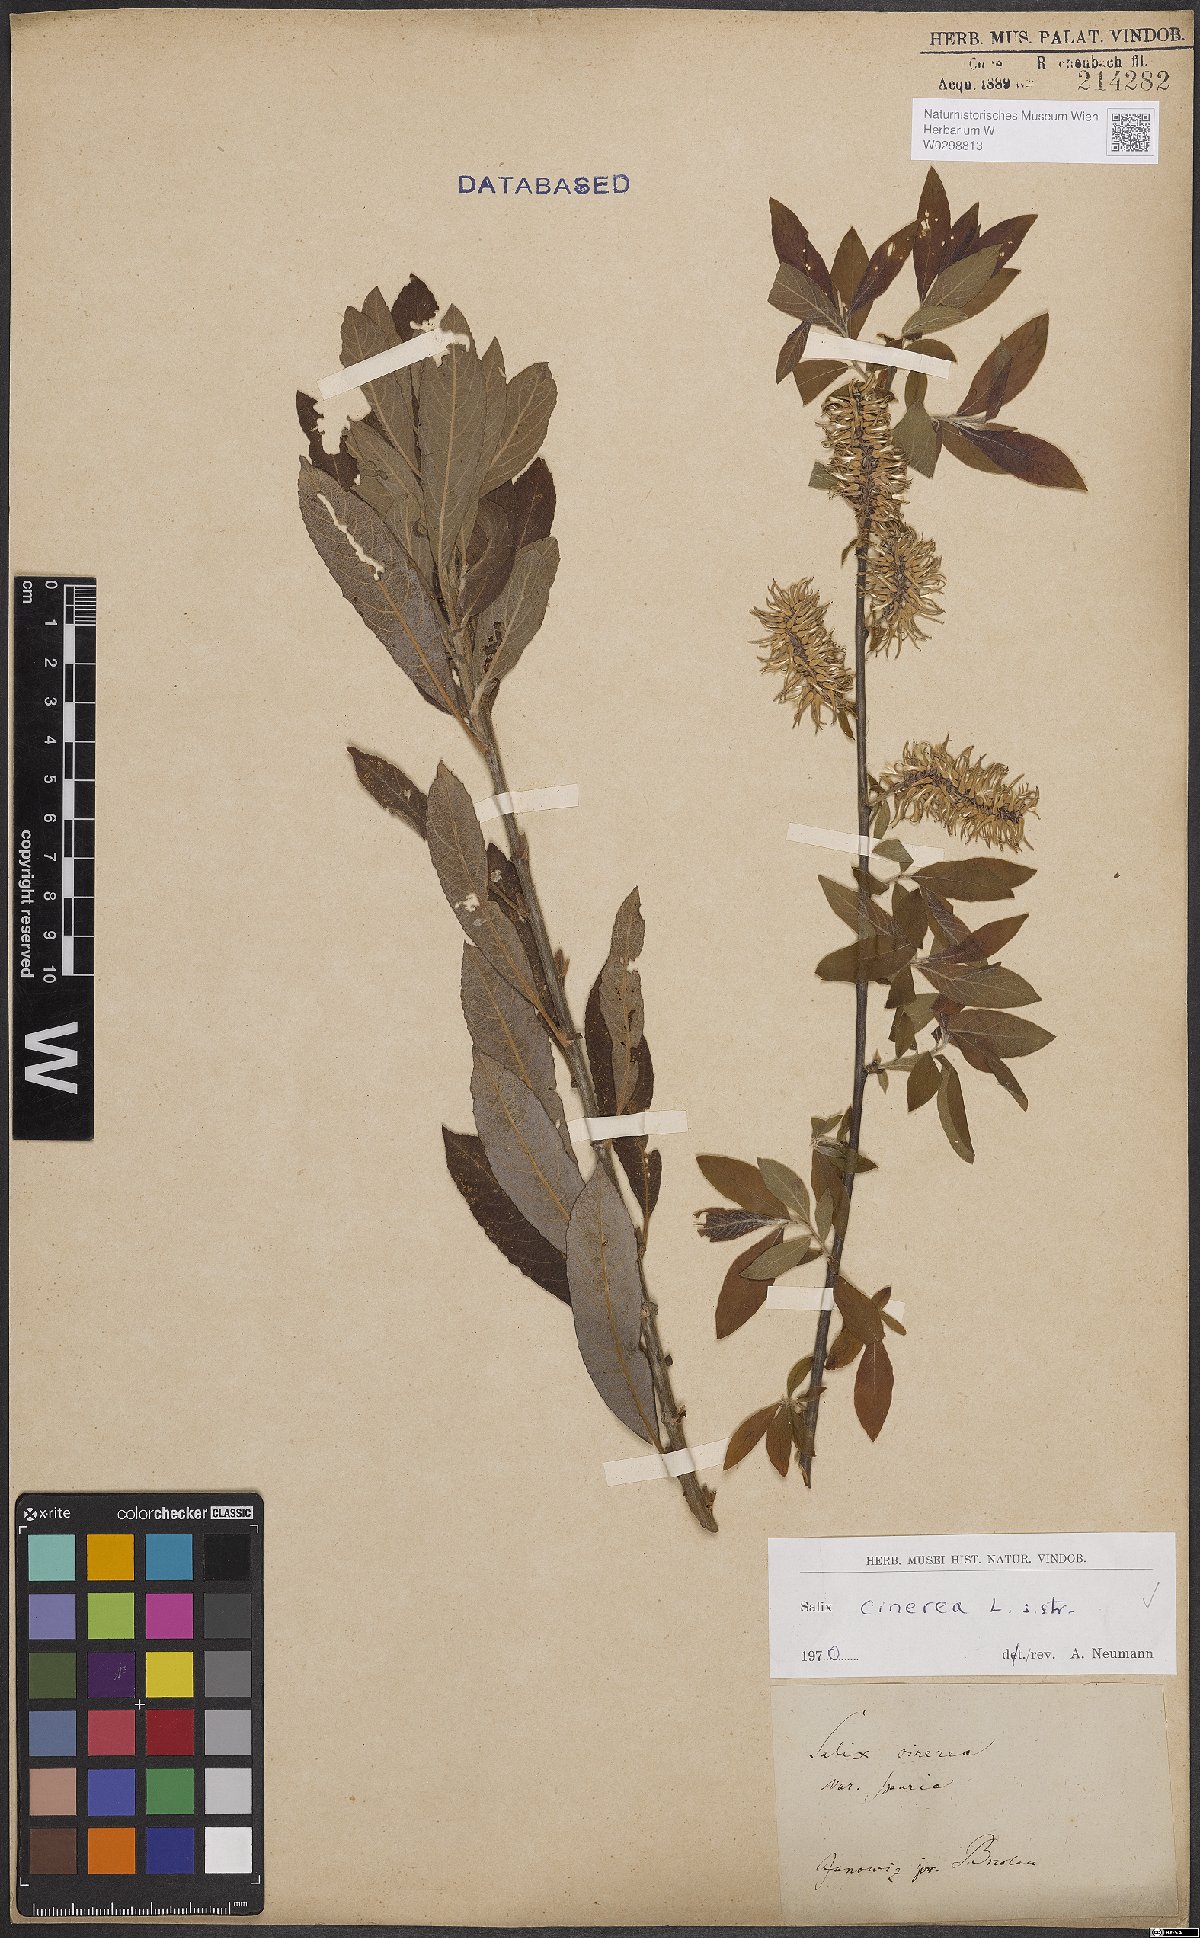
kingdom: Plantae
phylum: Tracheophyta
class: Magnoliopsida
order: Malpighiales
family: Salicaceae
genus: Salix
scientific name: Salix cinerea
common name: Common sallow
